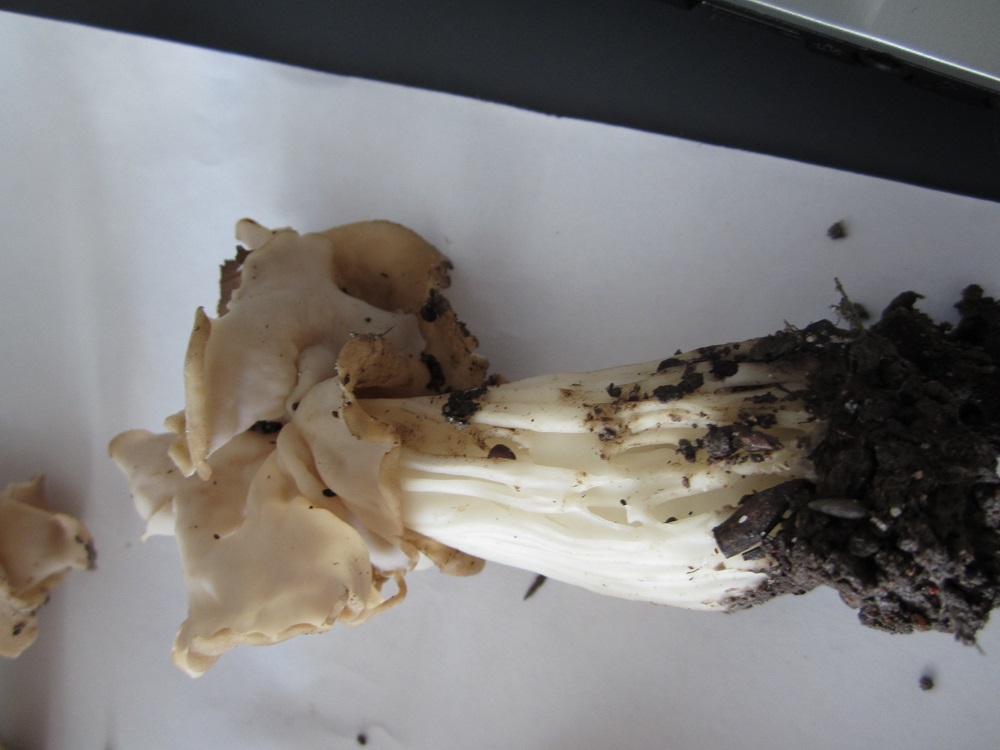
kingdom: Fungi
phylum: Ascomycota
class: Pezizomycetes
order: Pezizales
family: Helvellaceae
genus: Helvella
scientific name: Helvella crispa
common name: kruset foldhat
